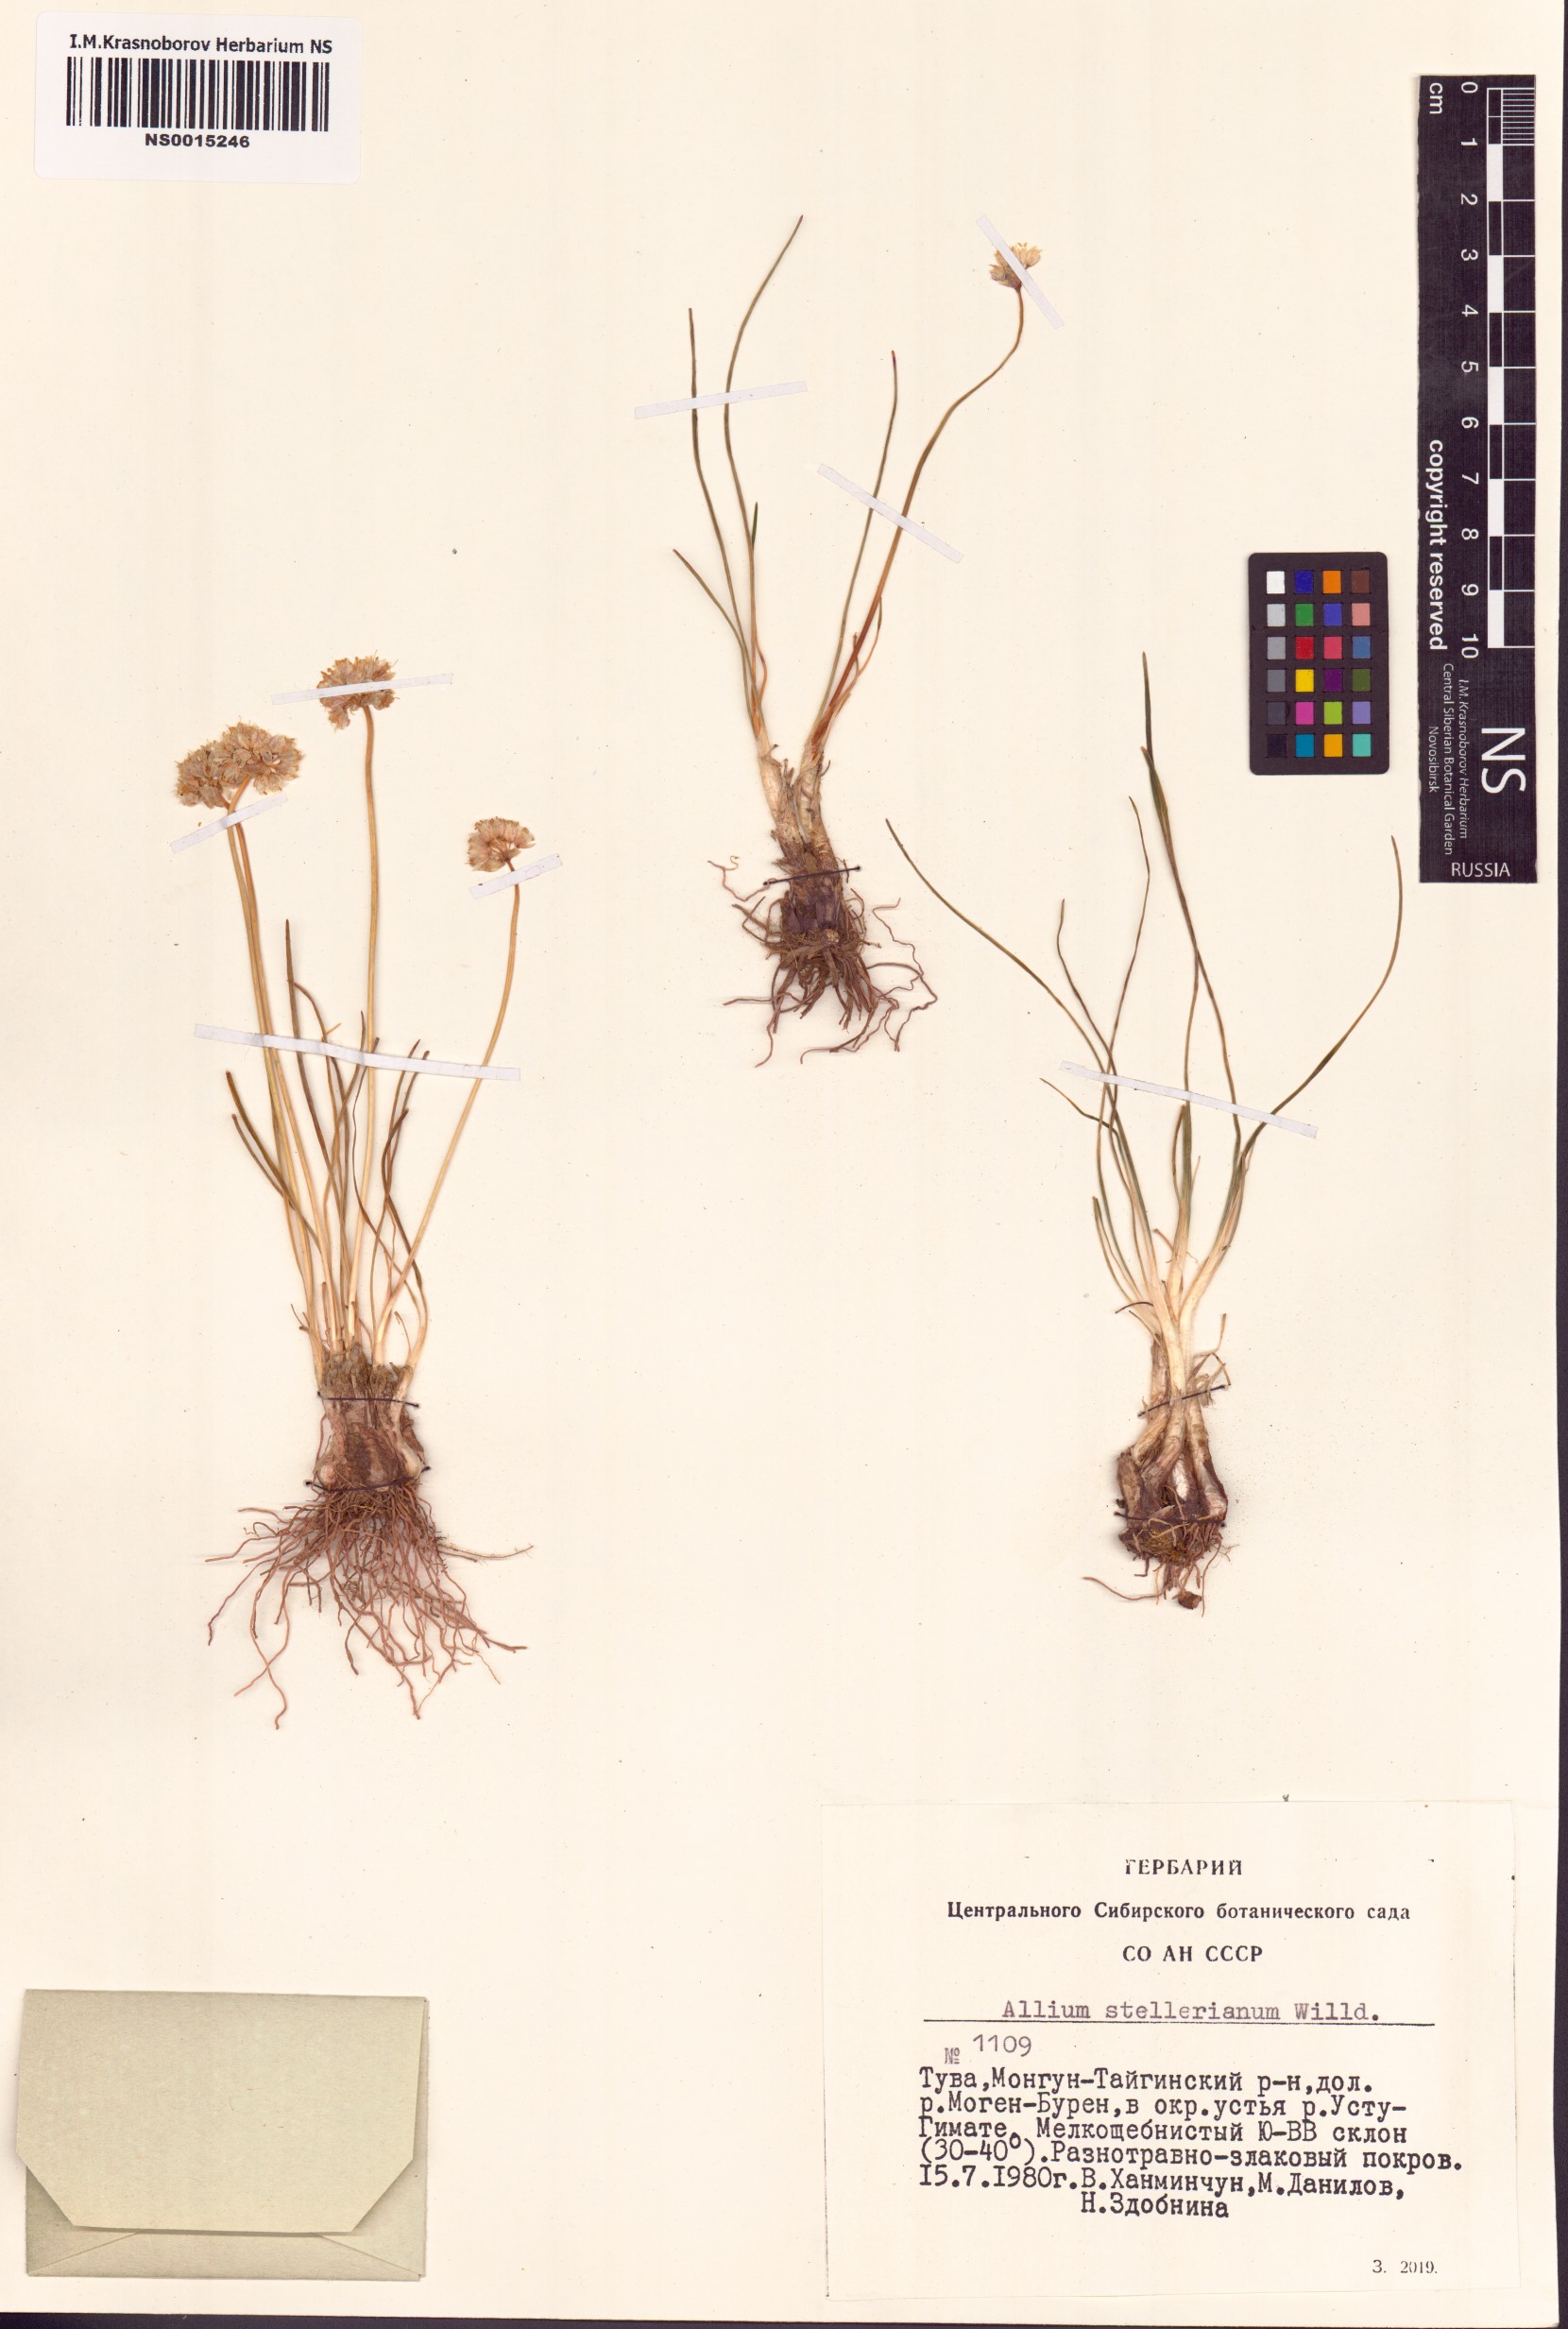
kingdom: Plantae
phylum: Tracheophyta
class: Liliopsida
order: Asparagales
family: Amaryllidaceae
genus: Allium
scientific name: Allium stellerianum
